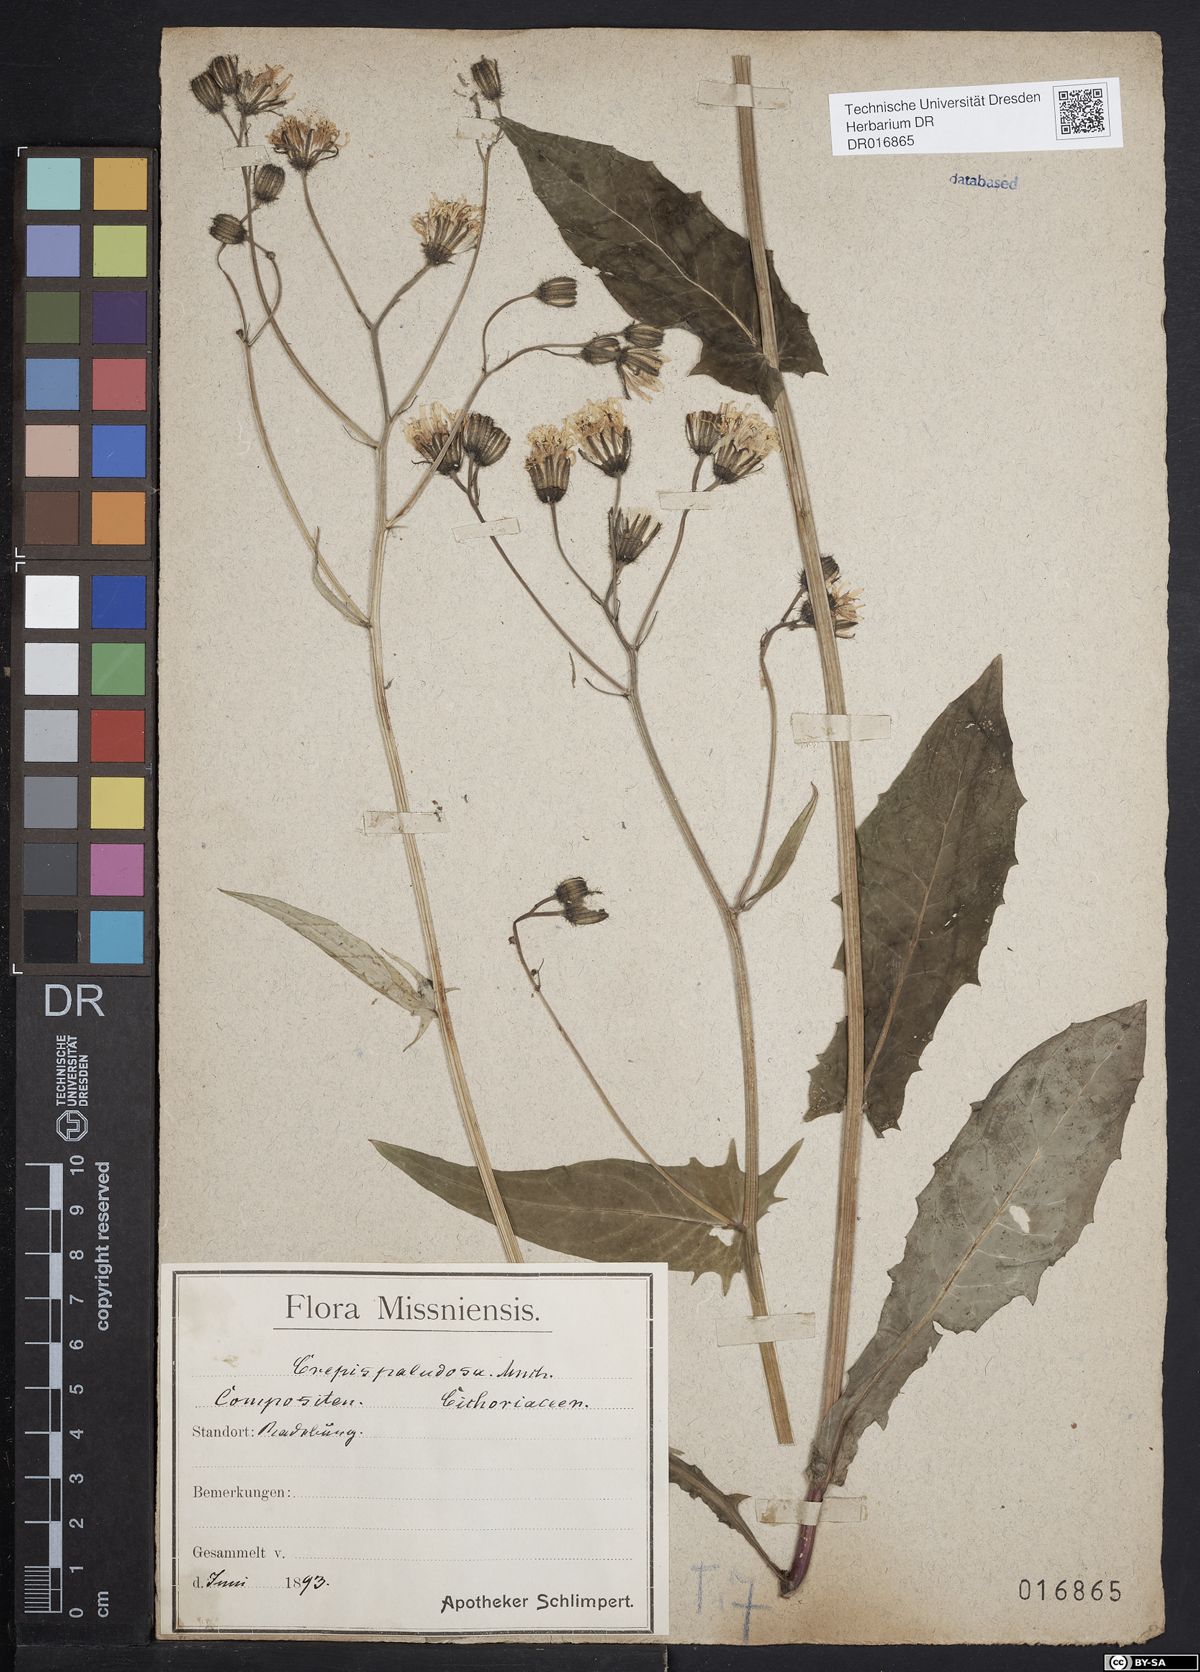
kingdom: Plantae
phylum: Tracheophyta
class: Magnoliopsida
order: Asterales
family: Asteraceae
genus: Crepis
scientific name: Crepis paludosa
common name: Marsh hawk's-beard
